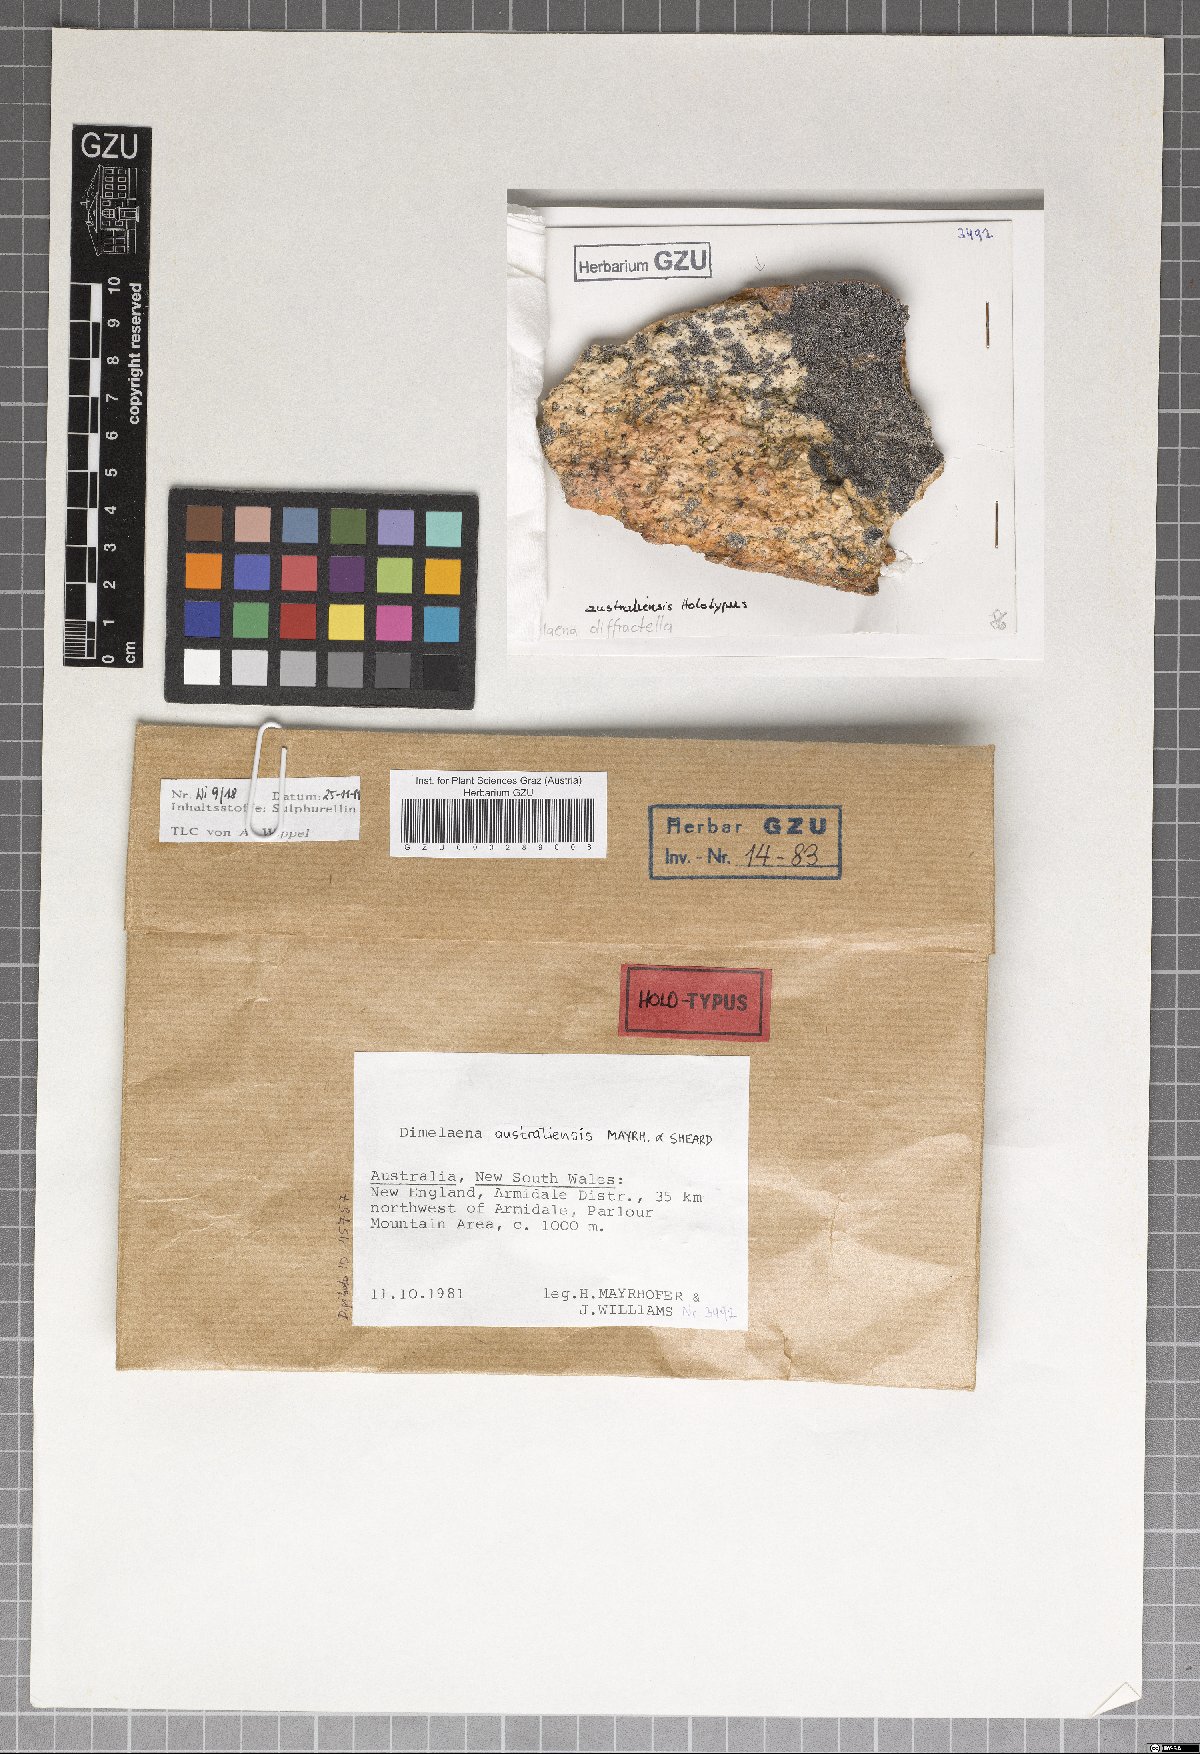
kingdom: Fungi
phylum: Ascomycota
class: Lecanoromycetes
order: Caliciales
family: Caliciaceae
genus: Dimelaena
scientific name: Dimelaena australiensis
